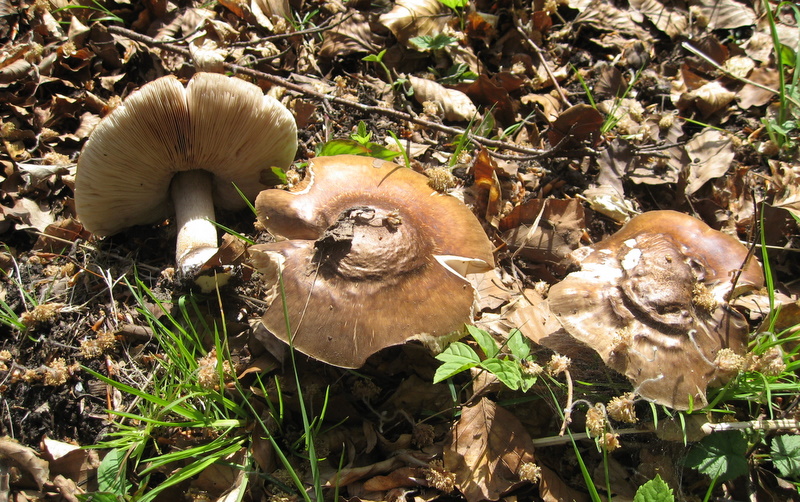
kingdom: Fungi
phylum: Basidiomycota
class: Agaricomycetes
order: Agaricales
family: Pluteaceae
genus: Pluteus
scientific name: Pluteus cervinus
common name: sodfarvet skærmhat
